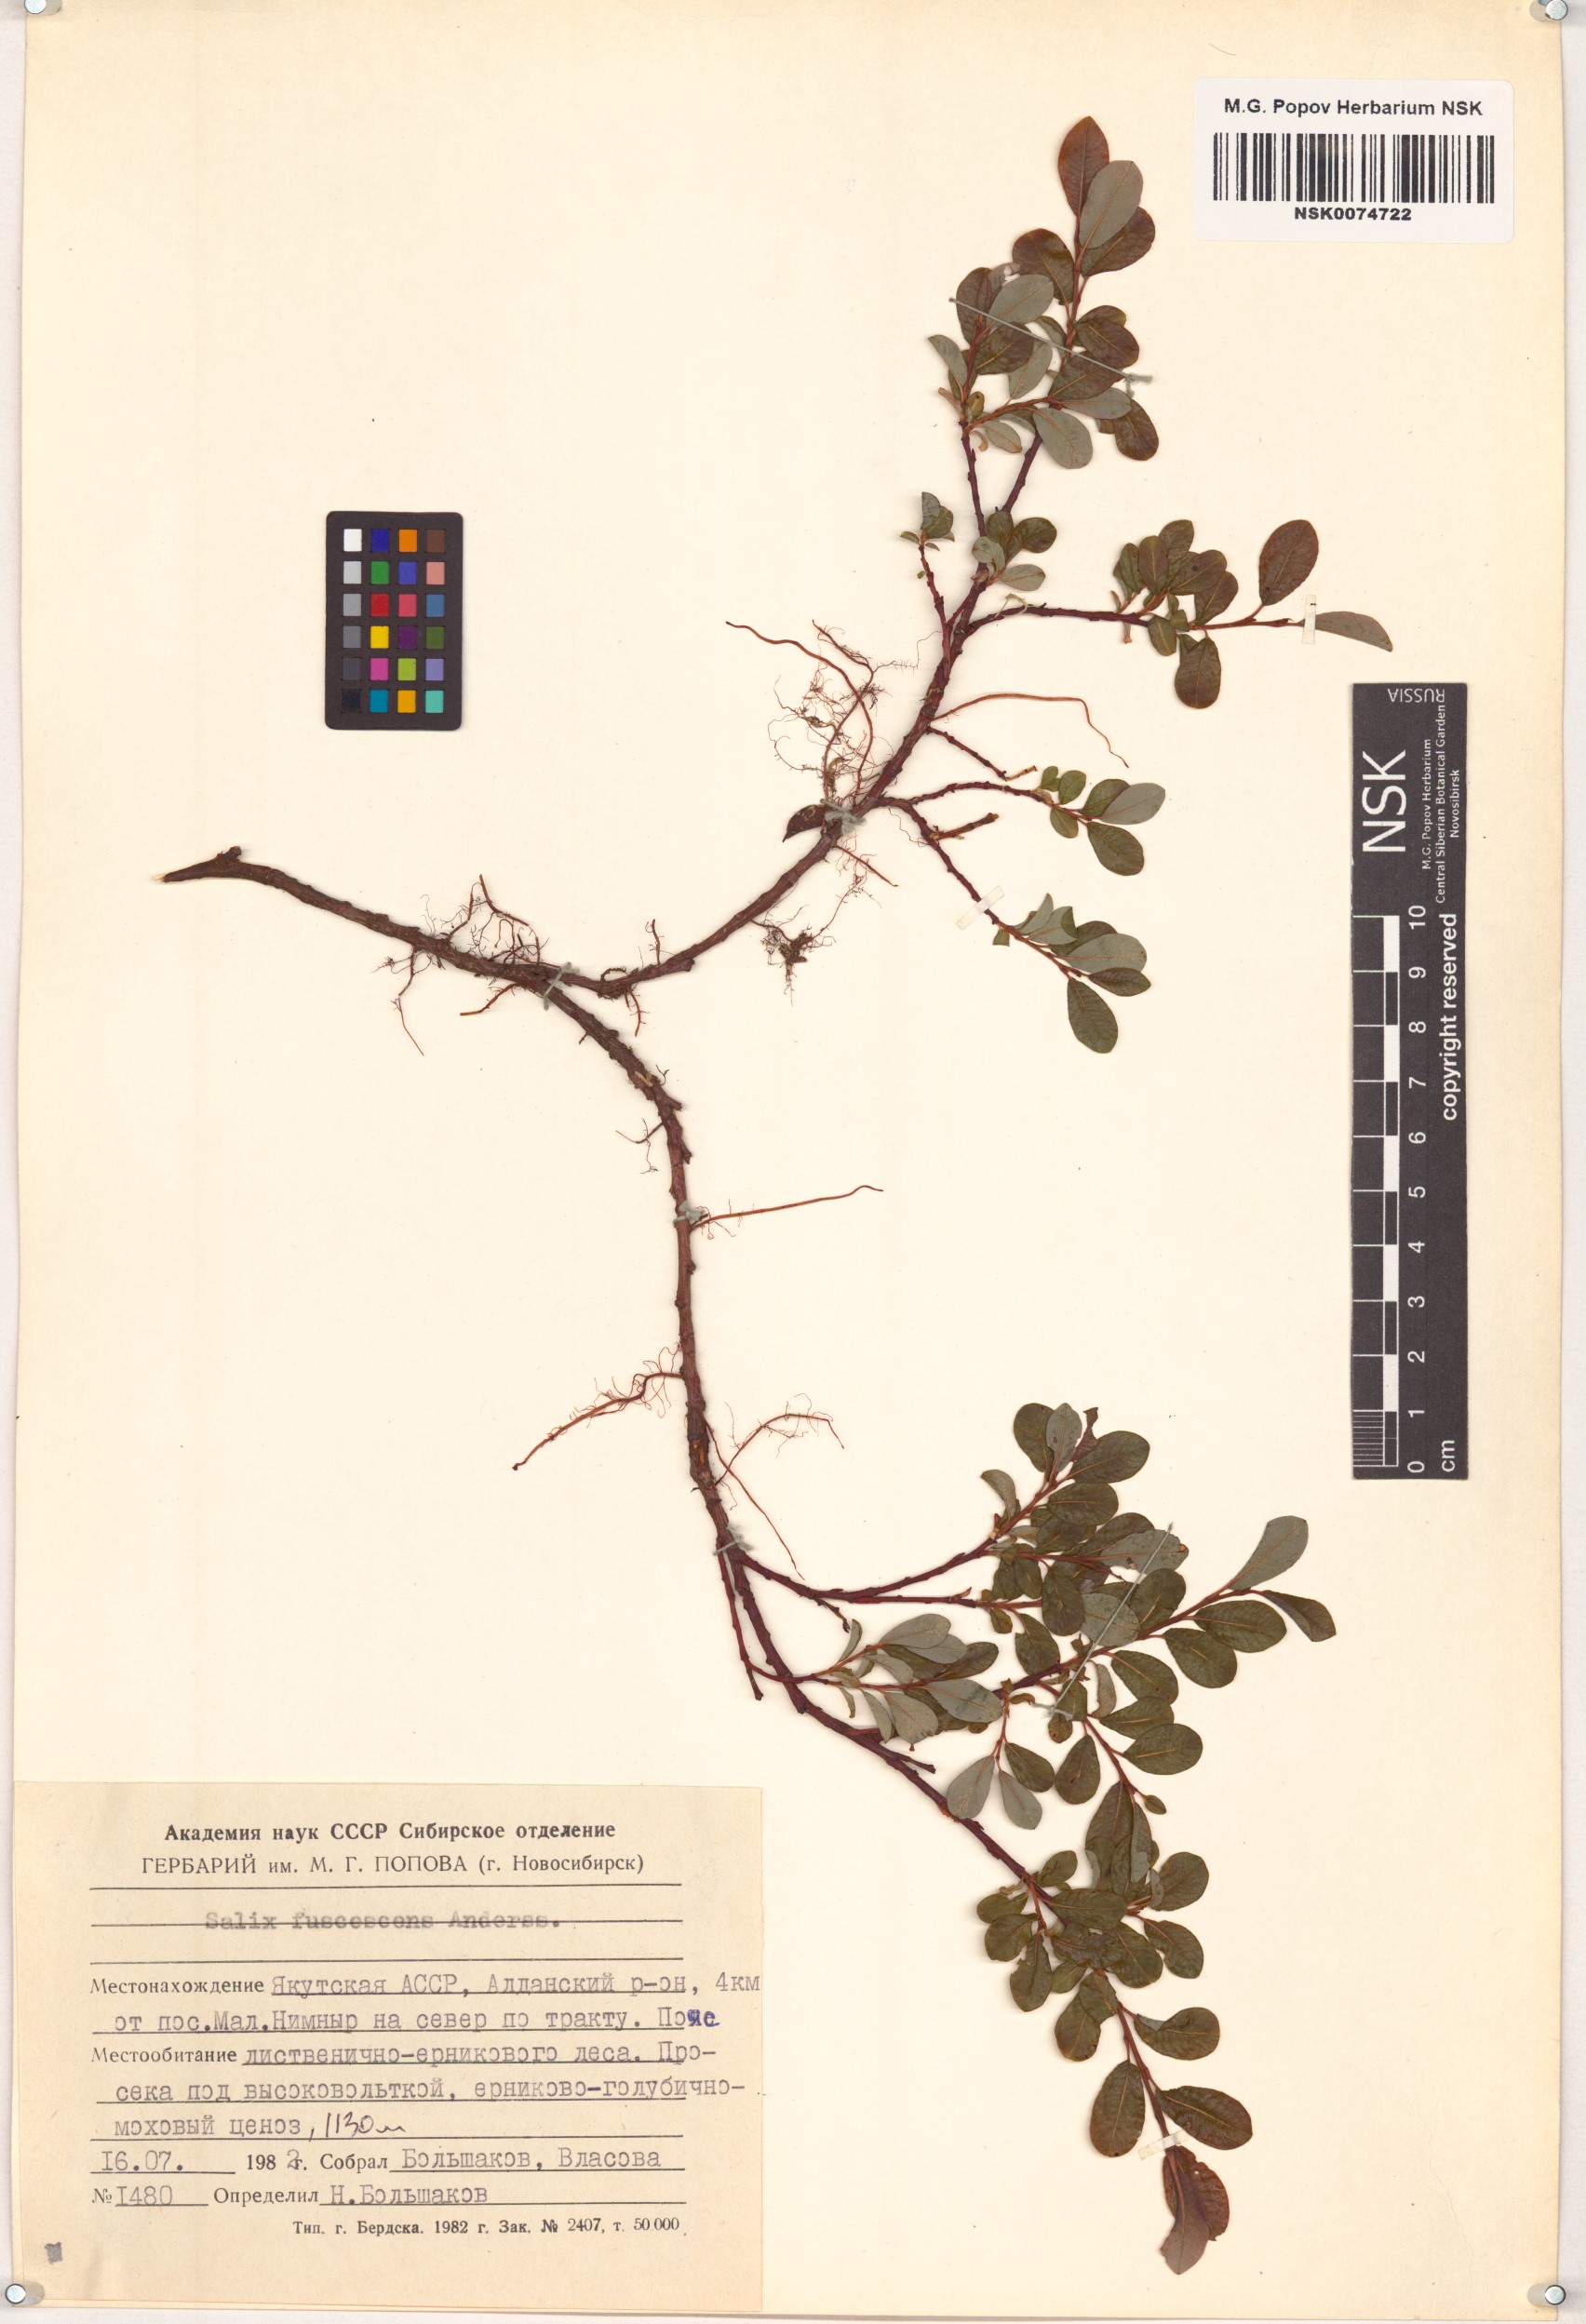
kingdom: Plantae
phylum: Tracheophyta
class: Magnoliopsida
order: Malpighiales
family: Salicaceae
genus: Salix
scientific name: Salix fuscescens
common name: Brownish willow
